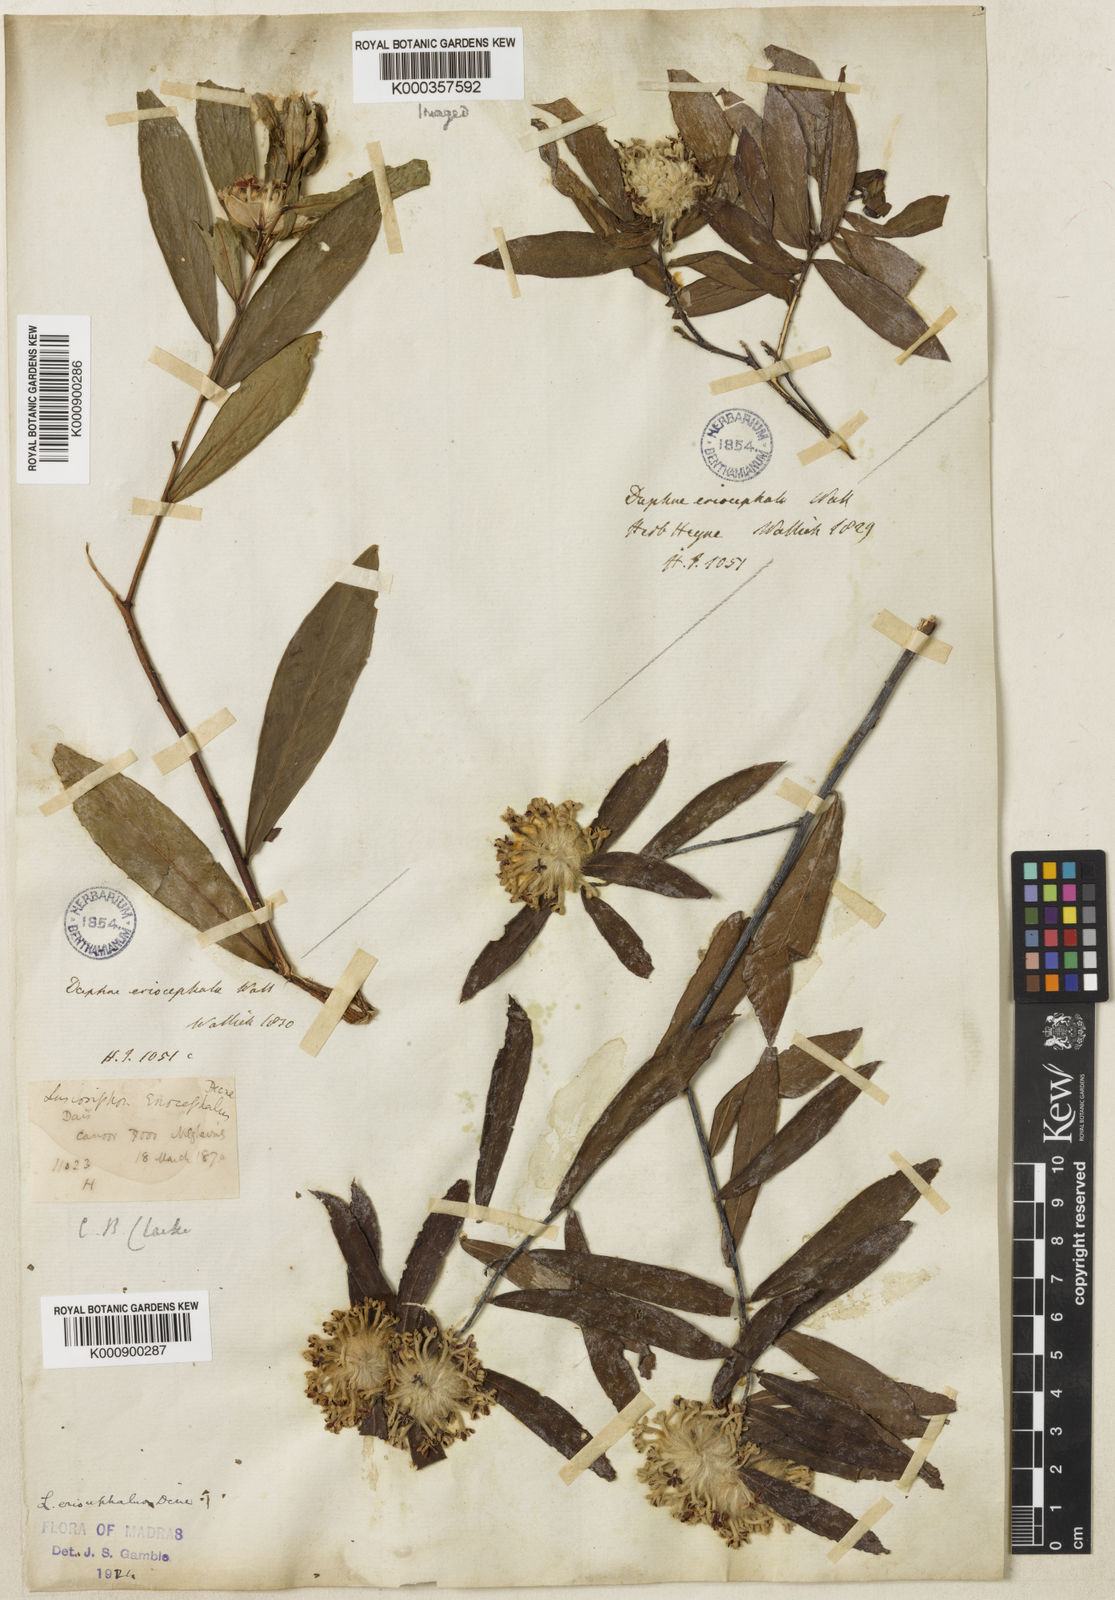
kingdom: Plantae
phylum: Tracheophyta
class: Magnoliopsida
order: Malvales
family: Thymelaeaceae
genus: Gnidia
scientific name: Gnidia glauca
